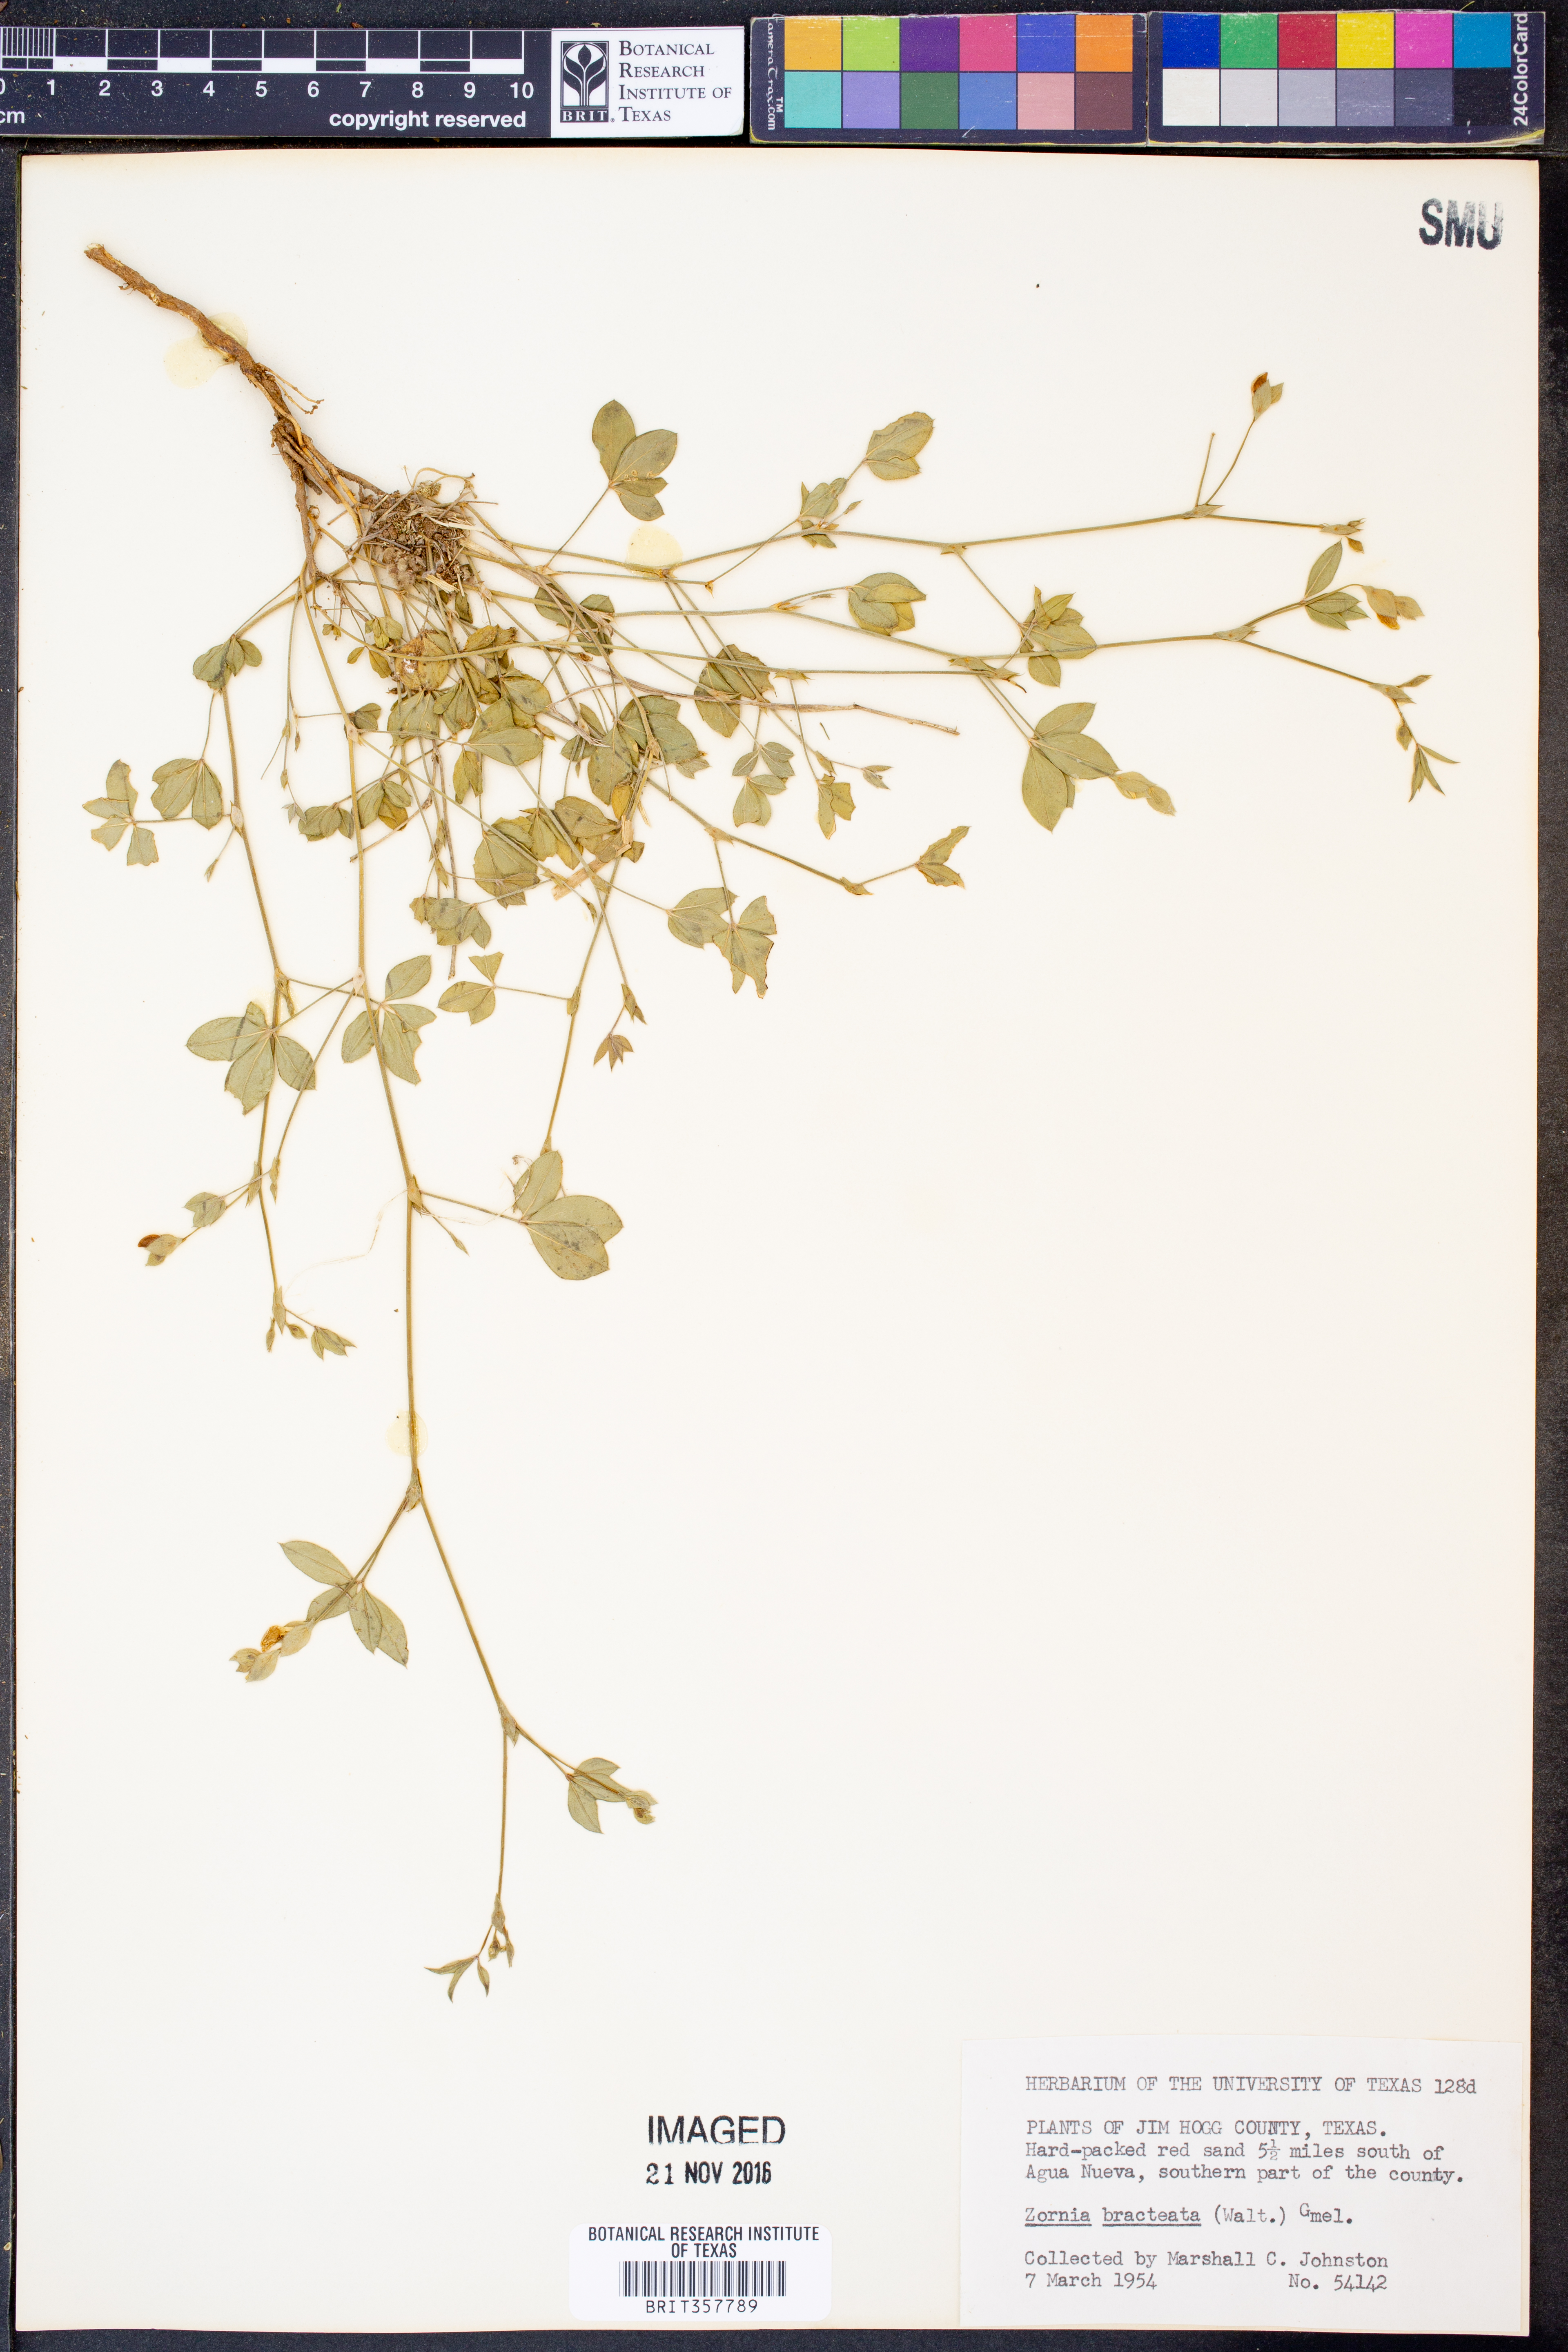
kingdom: Plantae
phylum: Tracheophyta
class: Magnoliopsida
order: Fabales
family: Fabaceae
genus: Zornia
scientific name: Zornia bracteata
